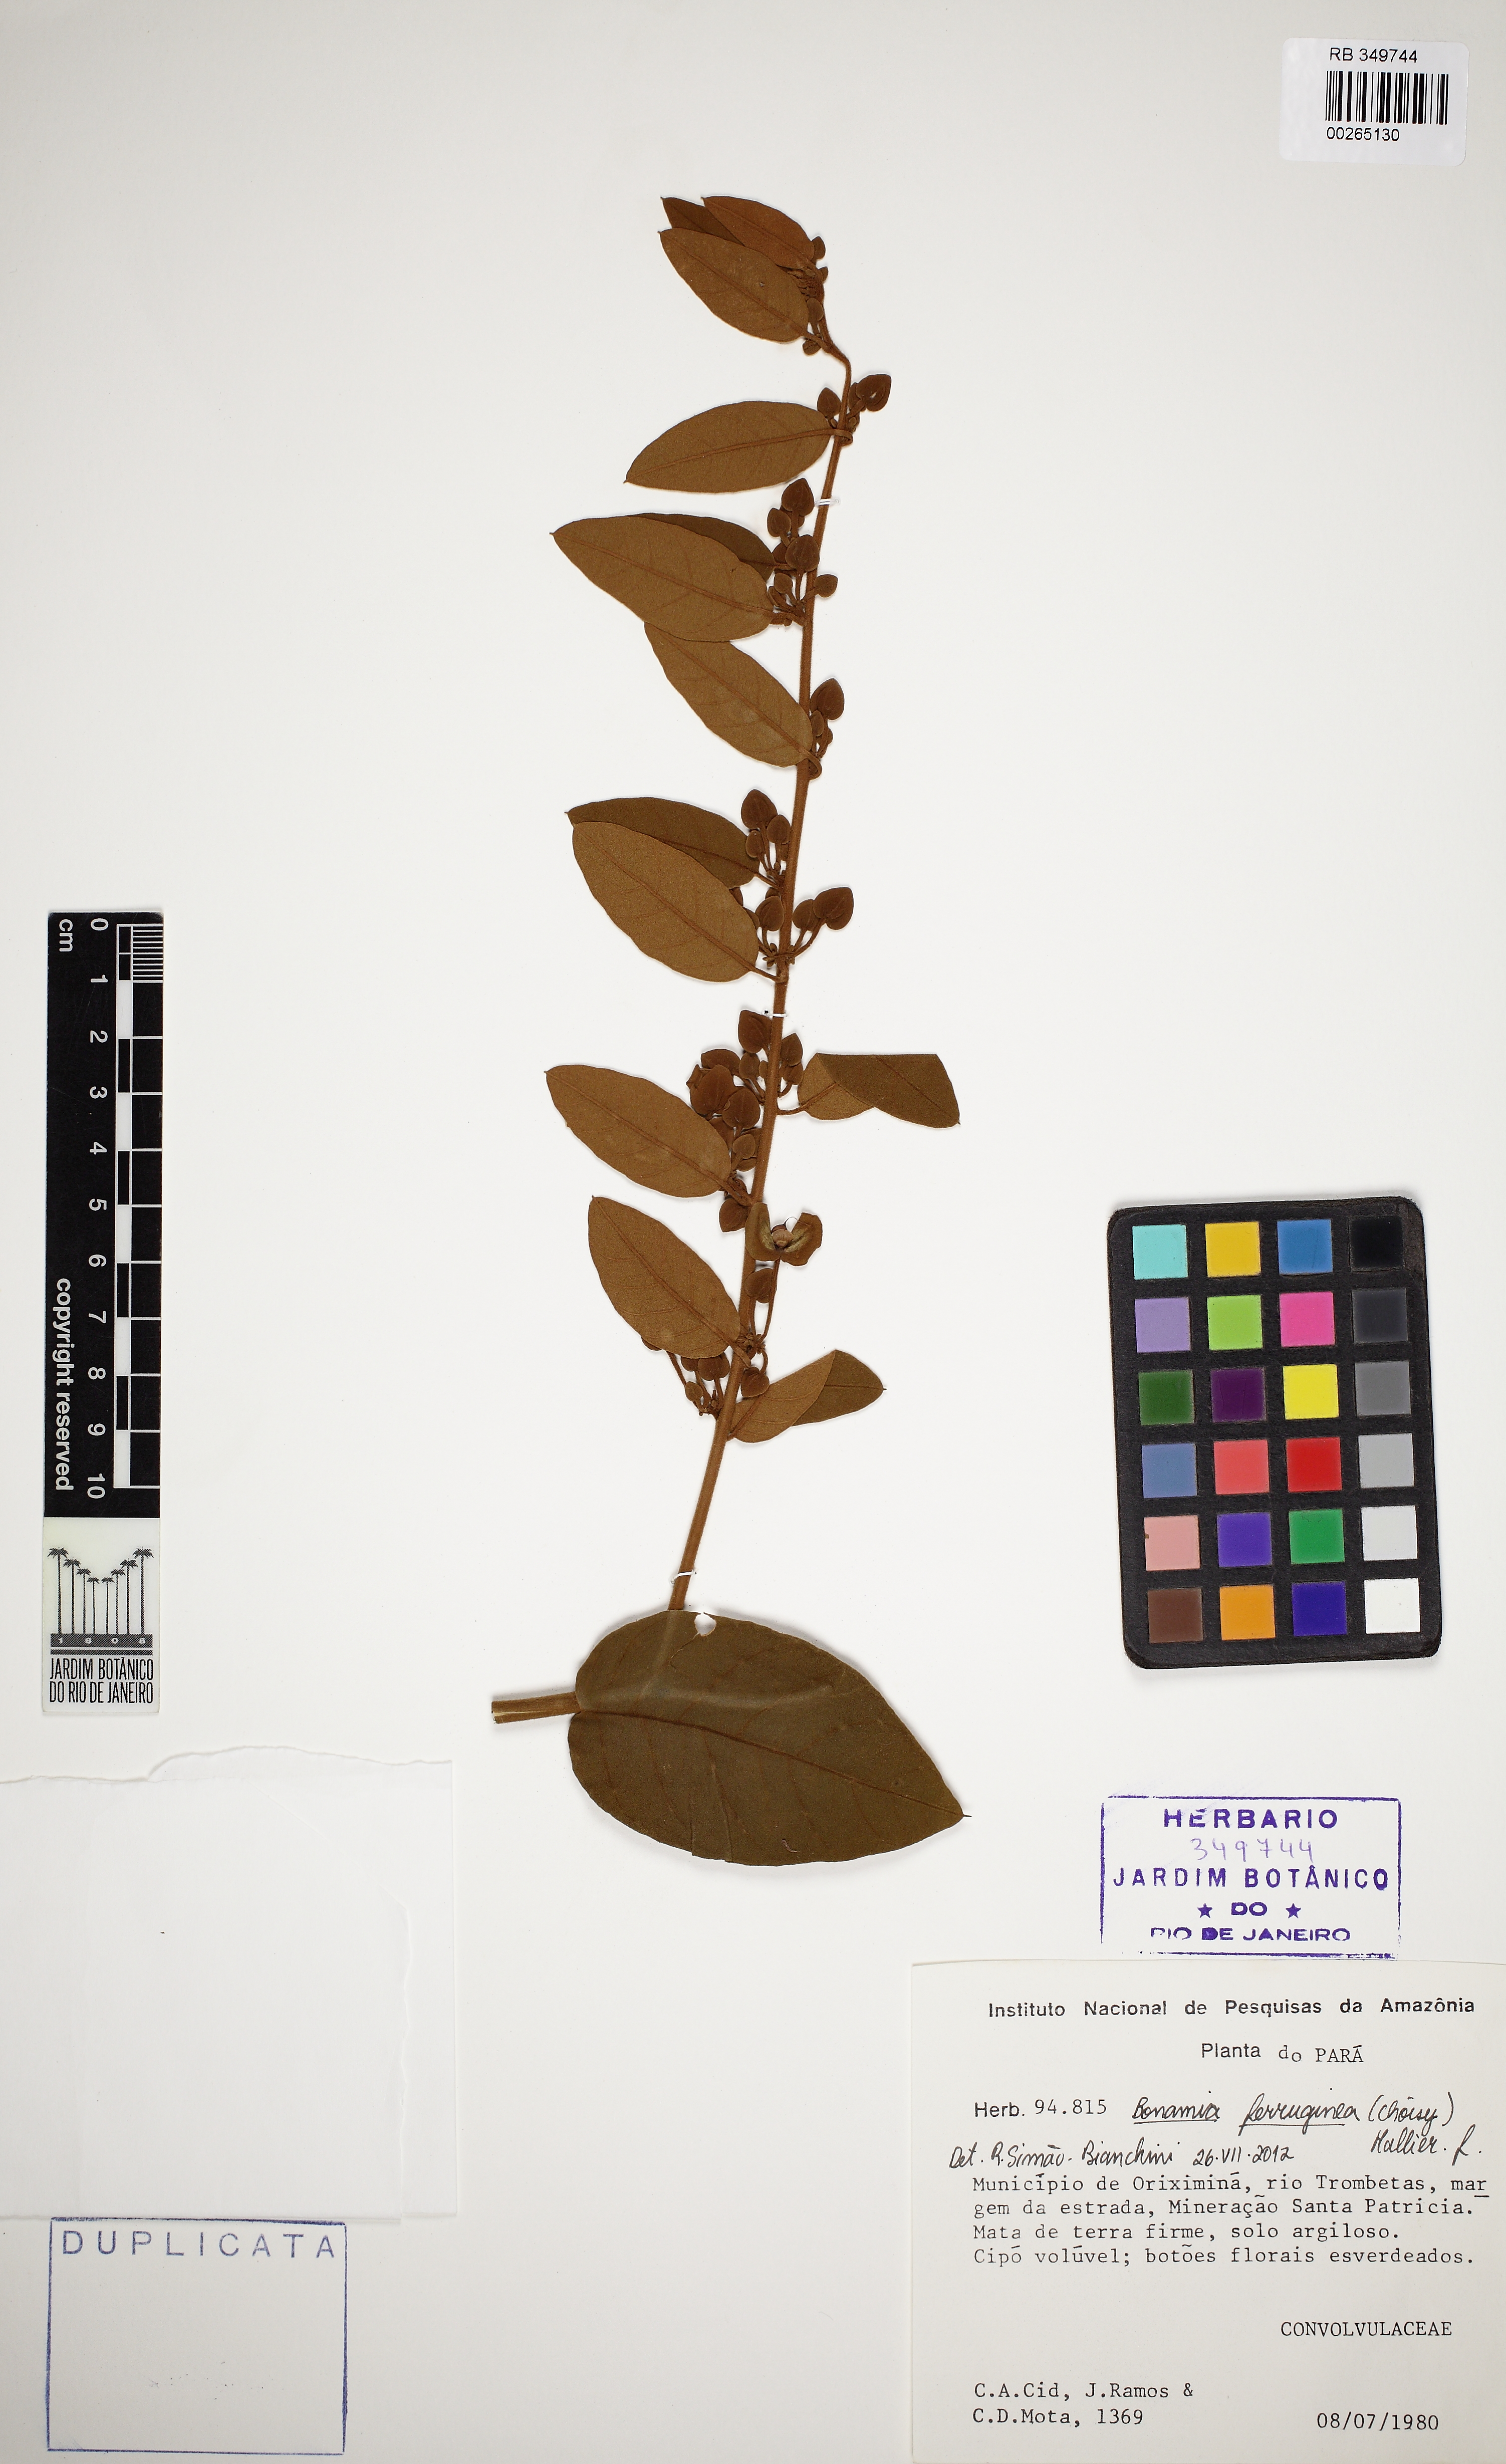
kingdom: Plantae
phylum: Tracheophyta
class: Magnoliopsida
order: Solanales
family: Convolvulaceae
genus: Bonamia
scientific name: Bonamia ferruginea
